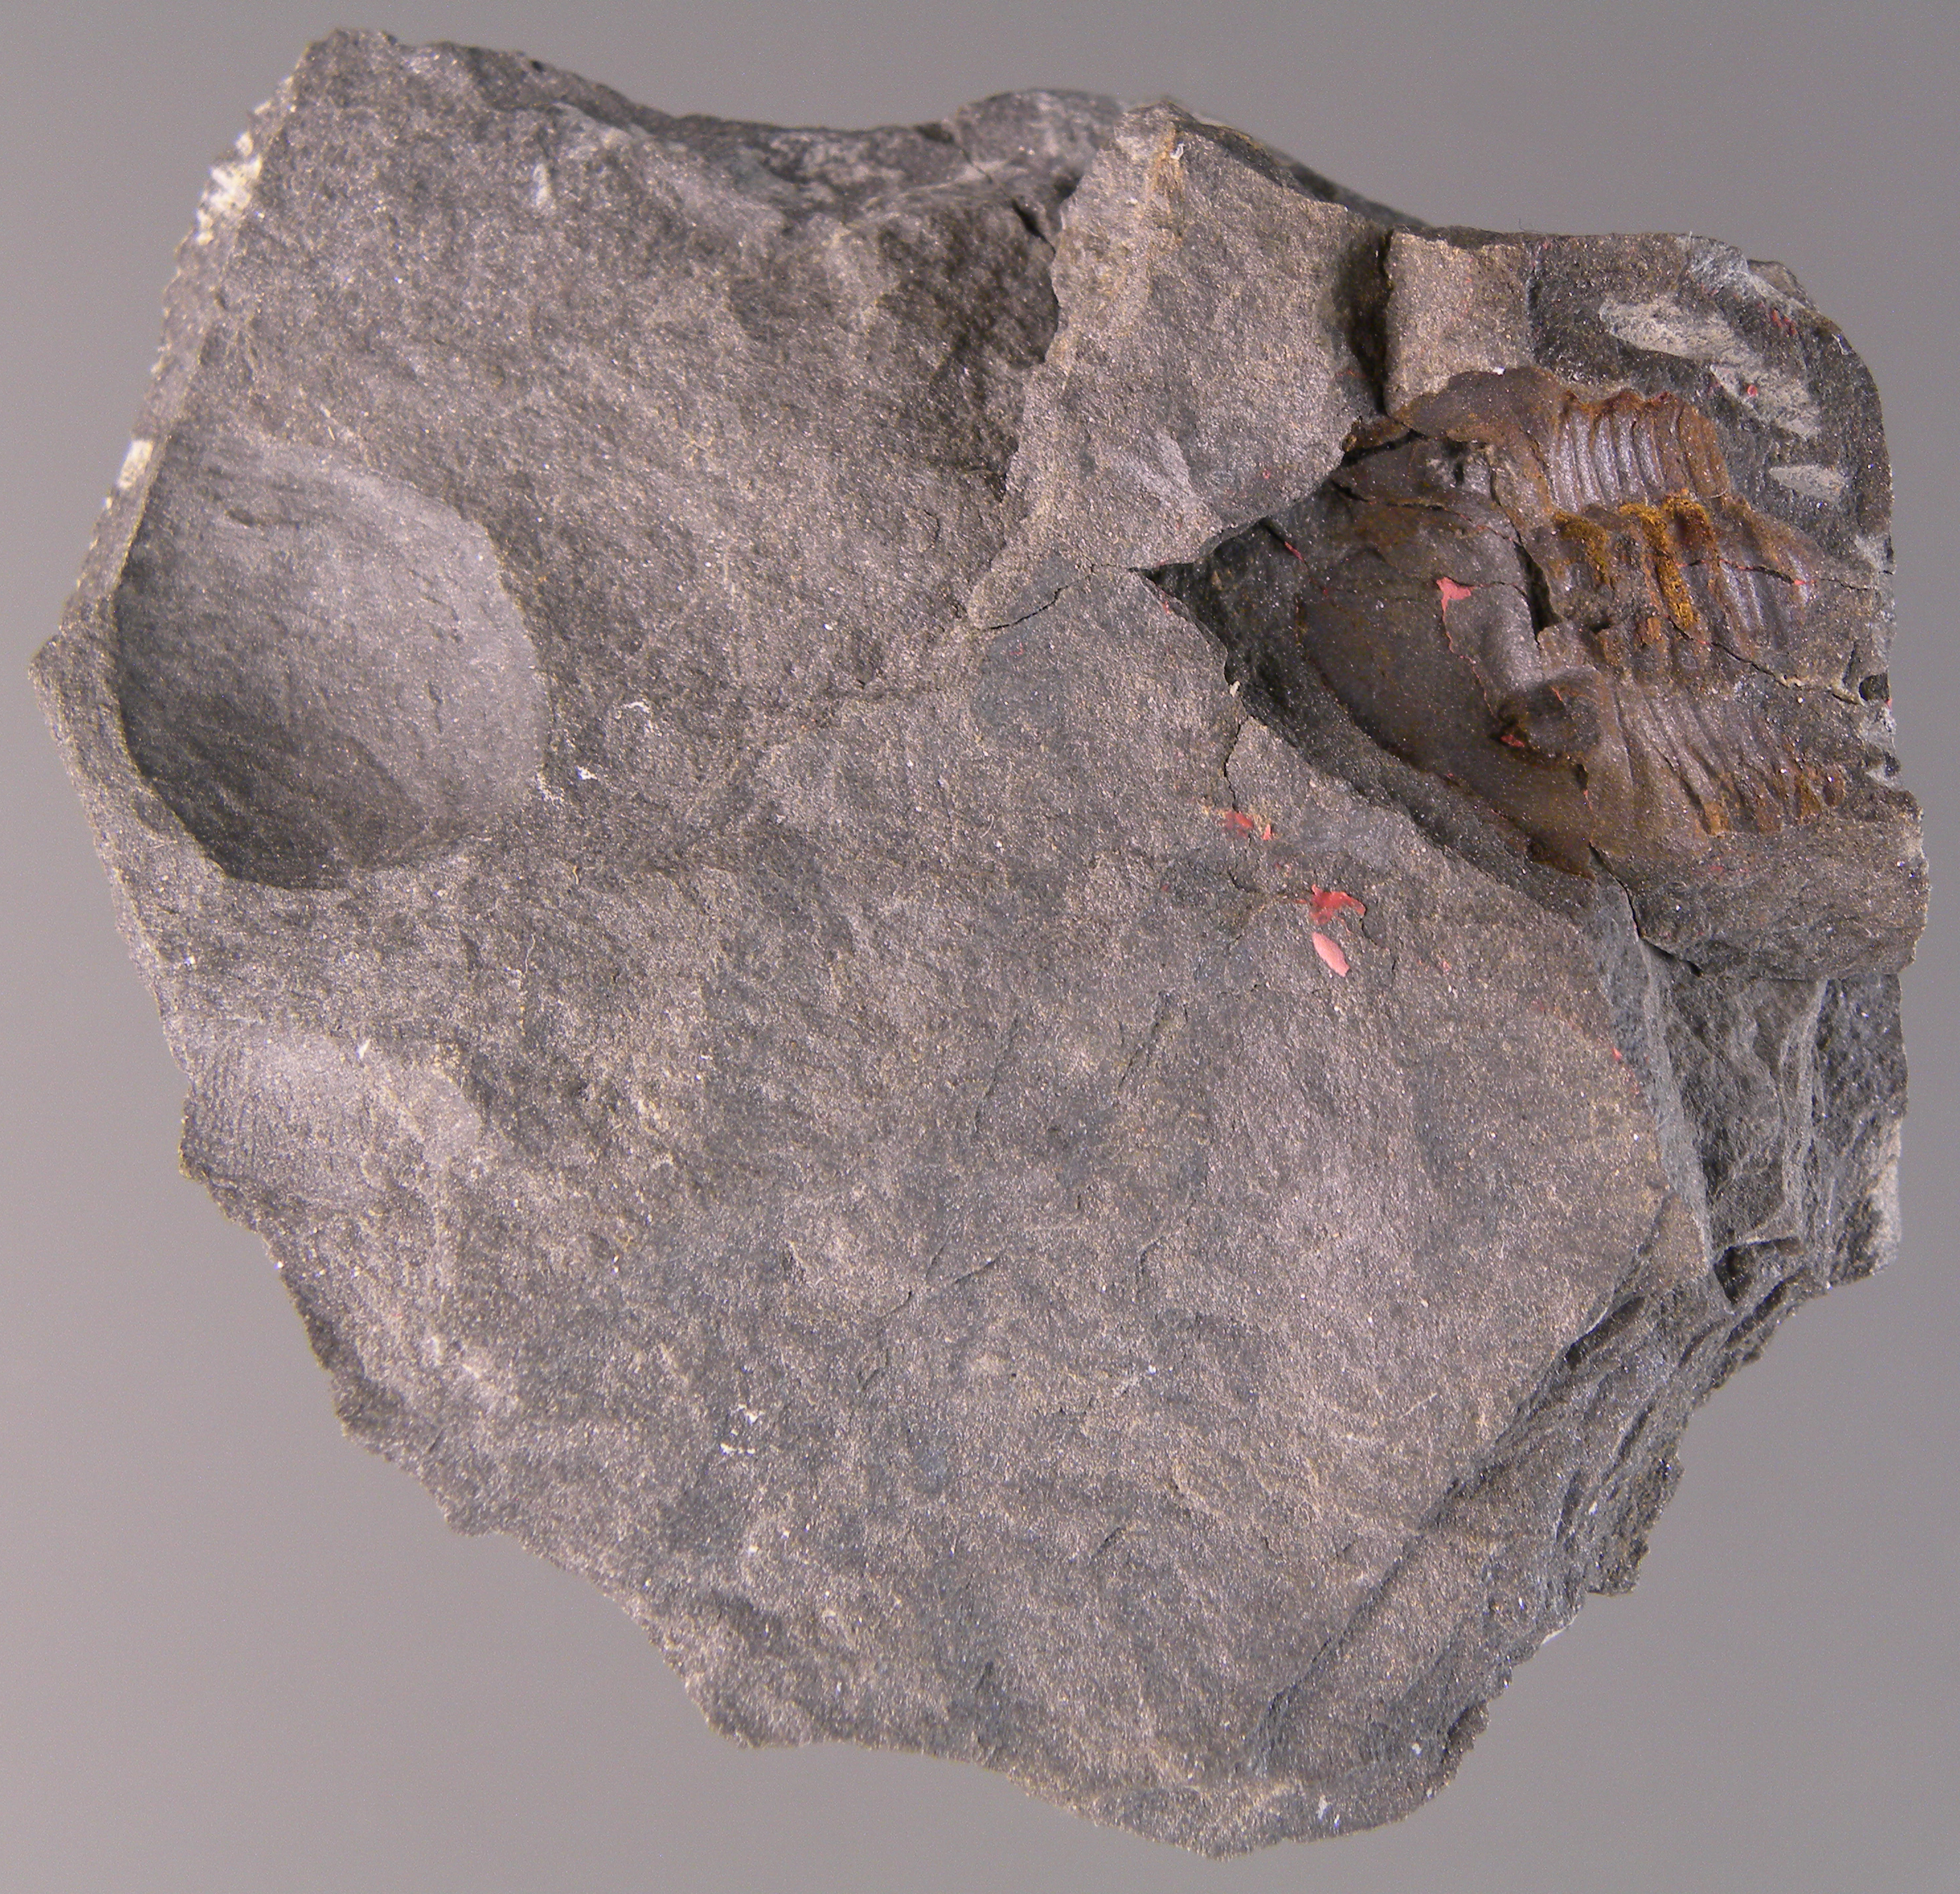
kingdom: Animalia
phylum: Arthropoda
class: Trilobita
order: Phacopida
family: Acastidae
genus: Acastava
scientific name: Acastava
